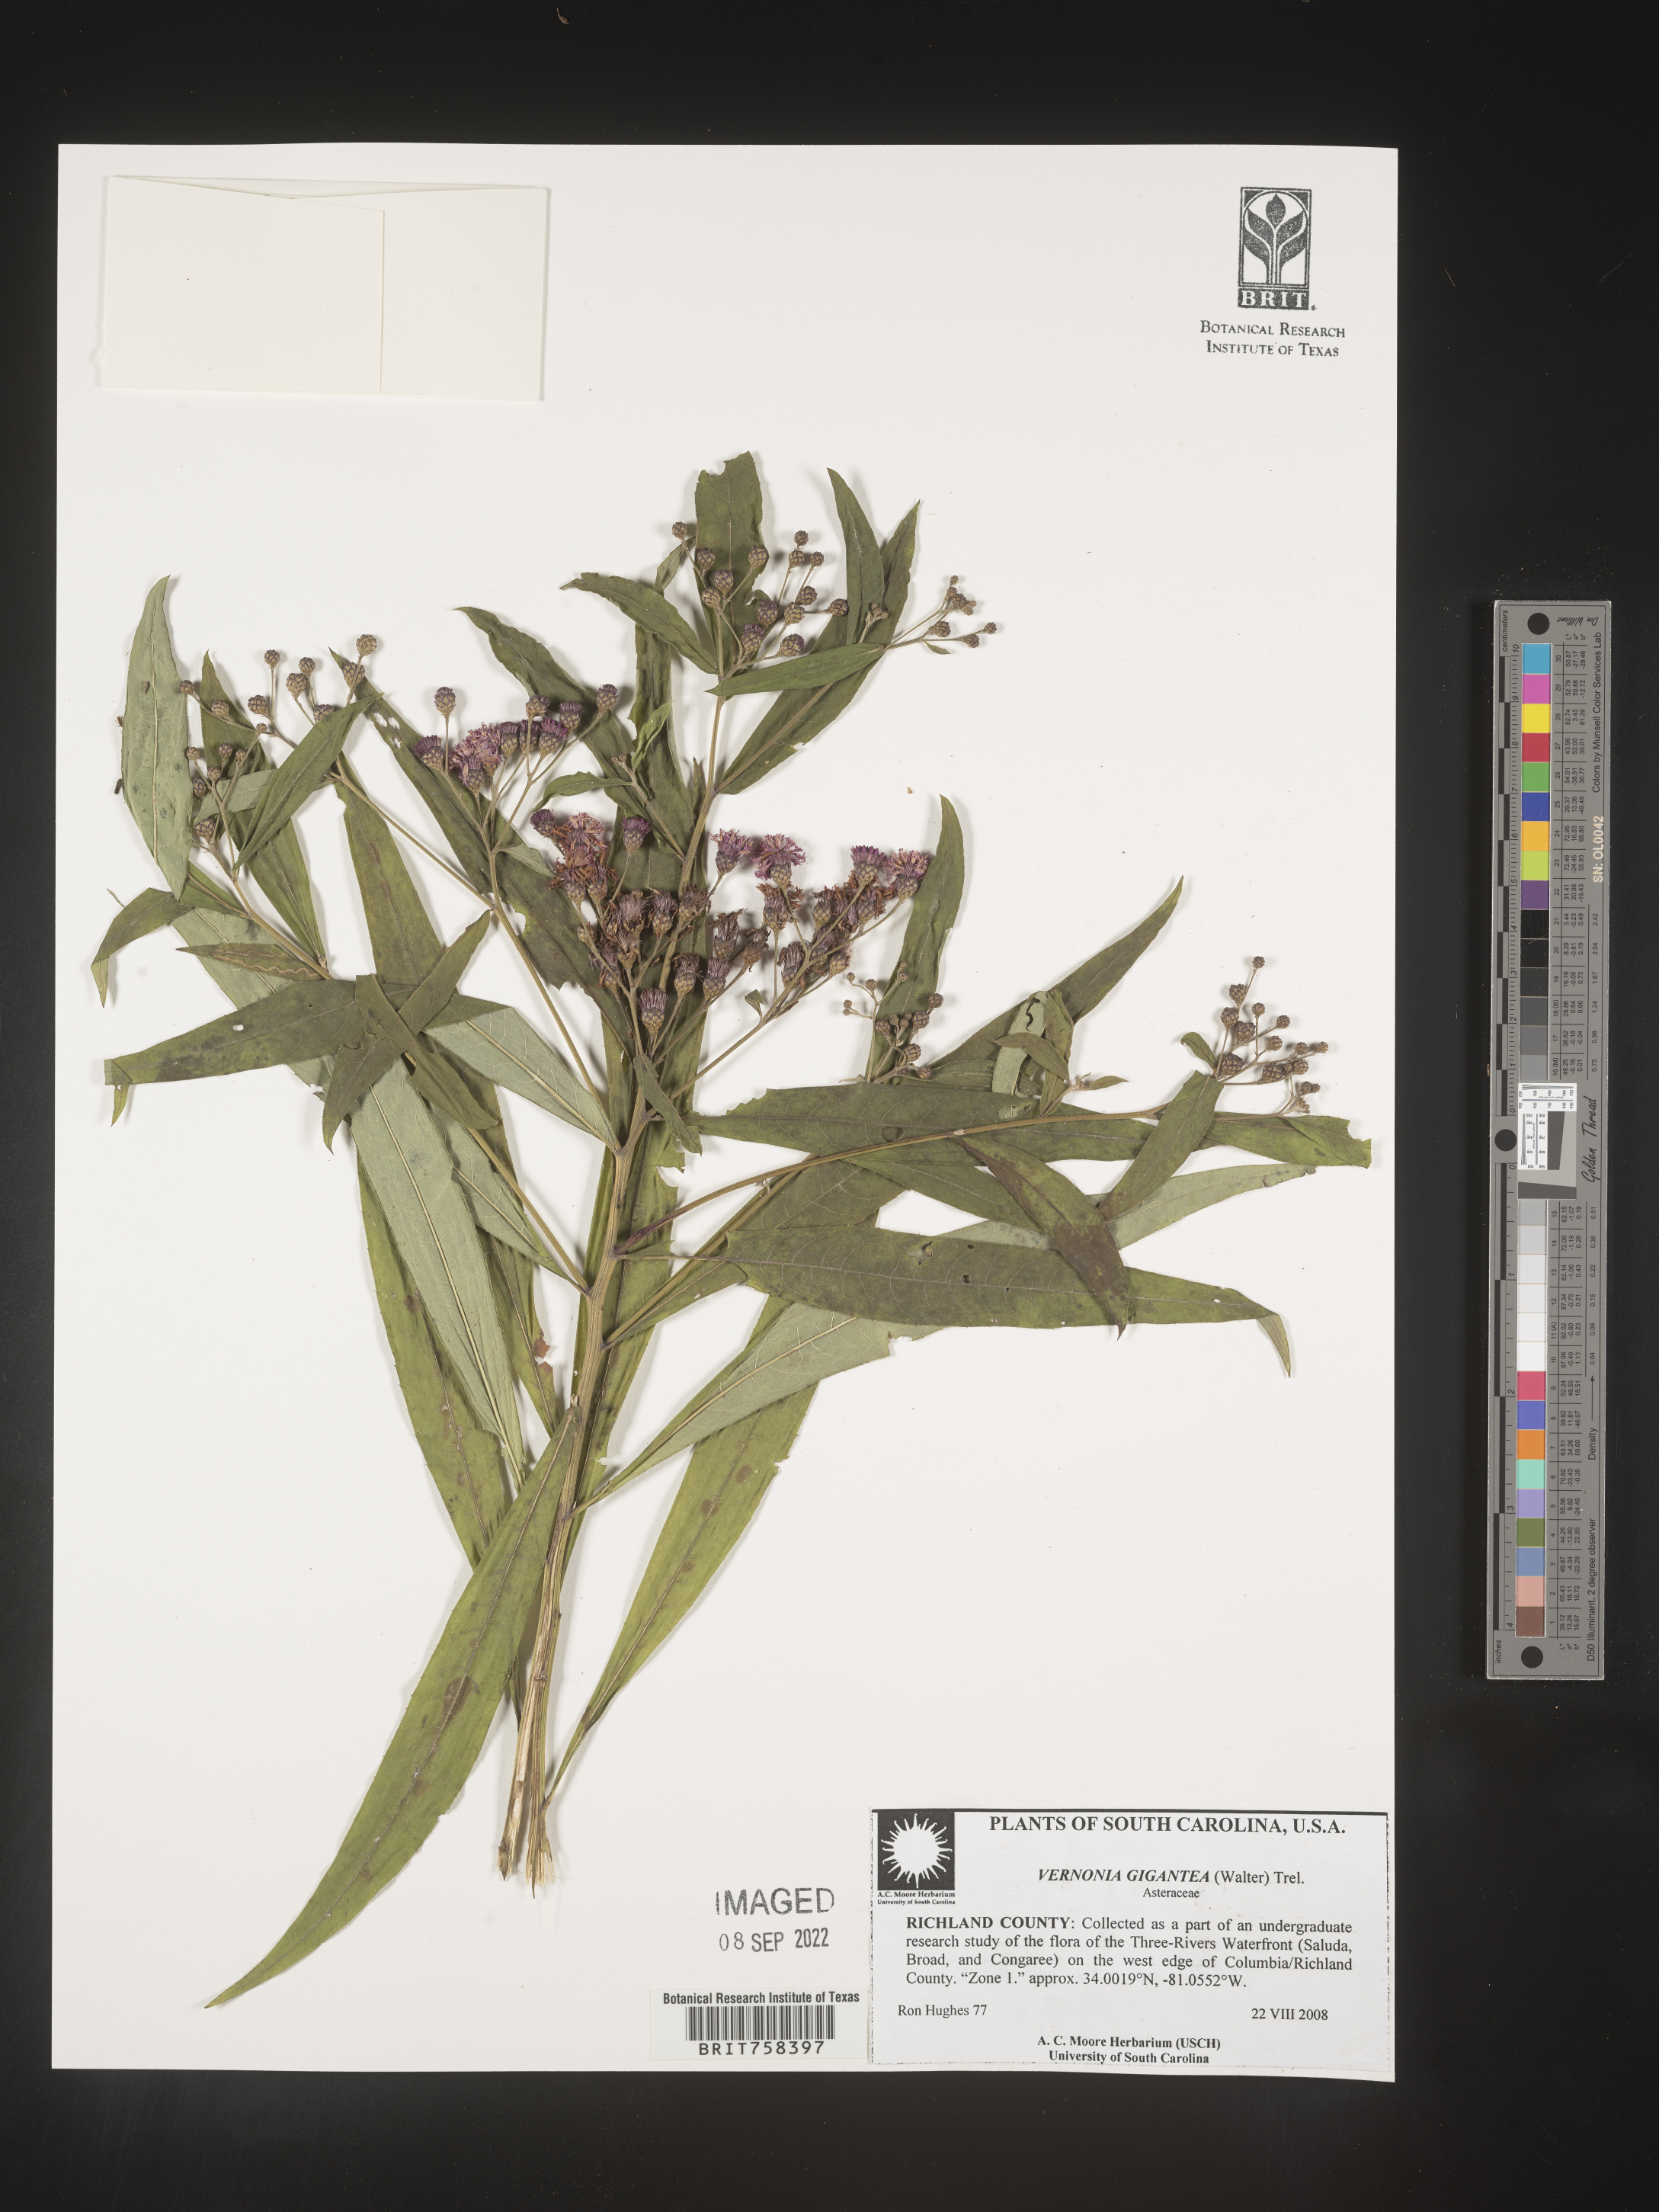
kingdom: Plantae
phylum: Tracheophyta
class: Magnoliopsida
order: Asterales
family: Asteraceae
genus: Vernonia
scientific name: Vernonia gigantea
